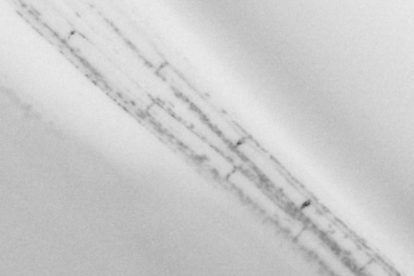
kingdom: Animalia
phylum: Chordata
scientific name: Chordata
